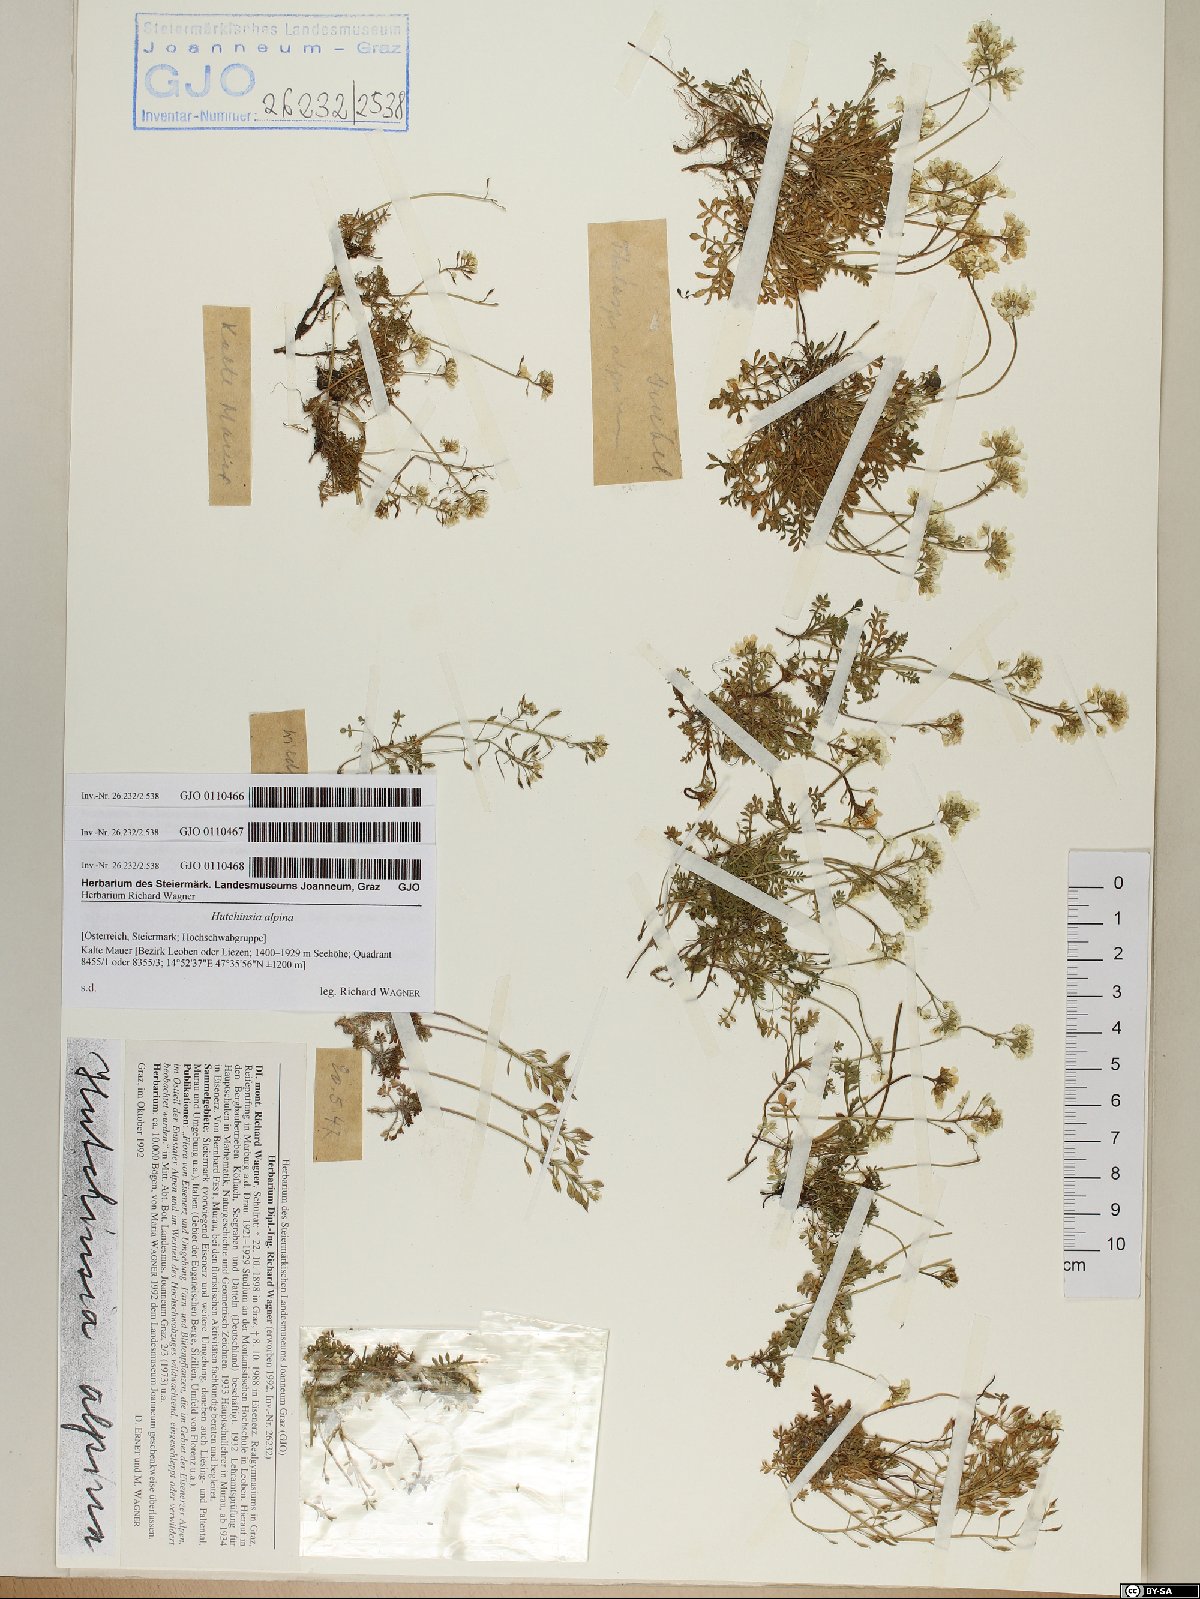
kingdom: Plantae
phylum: Tracheophyta
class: Magnoliopsida
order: Brassicales
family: Brassicaceae
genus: Hornungia
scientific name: Hornungia alpina
